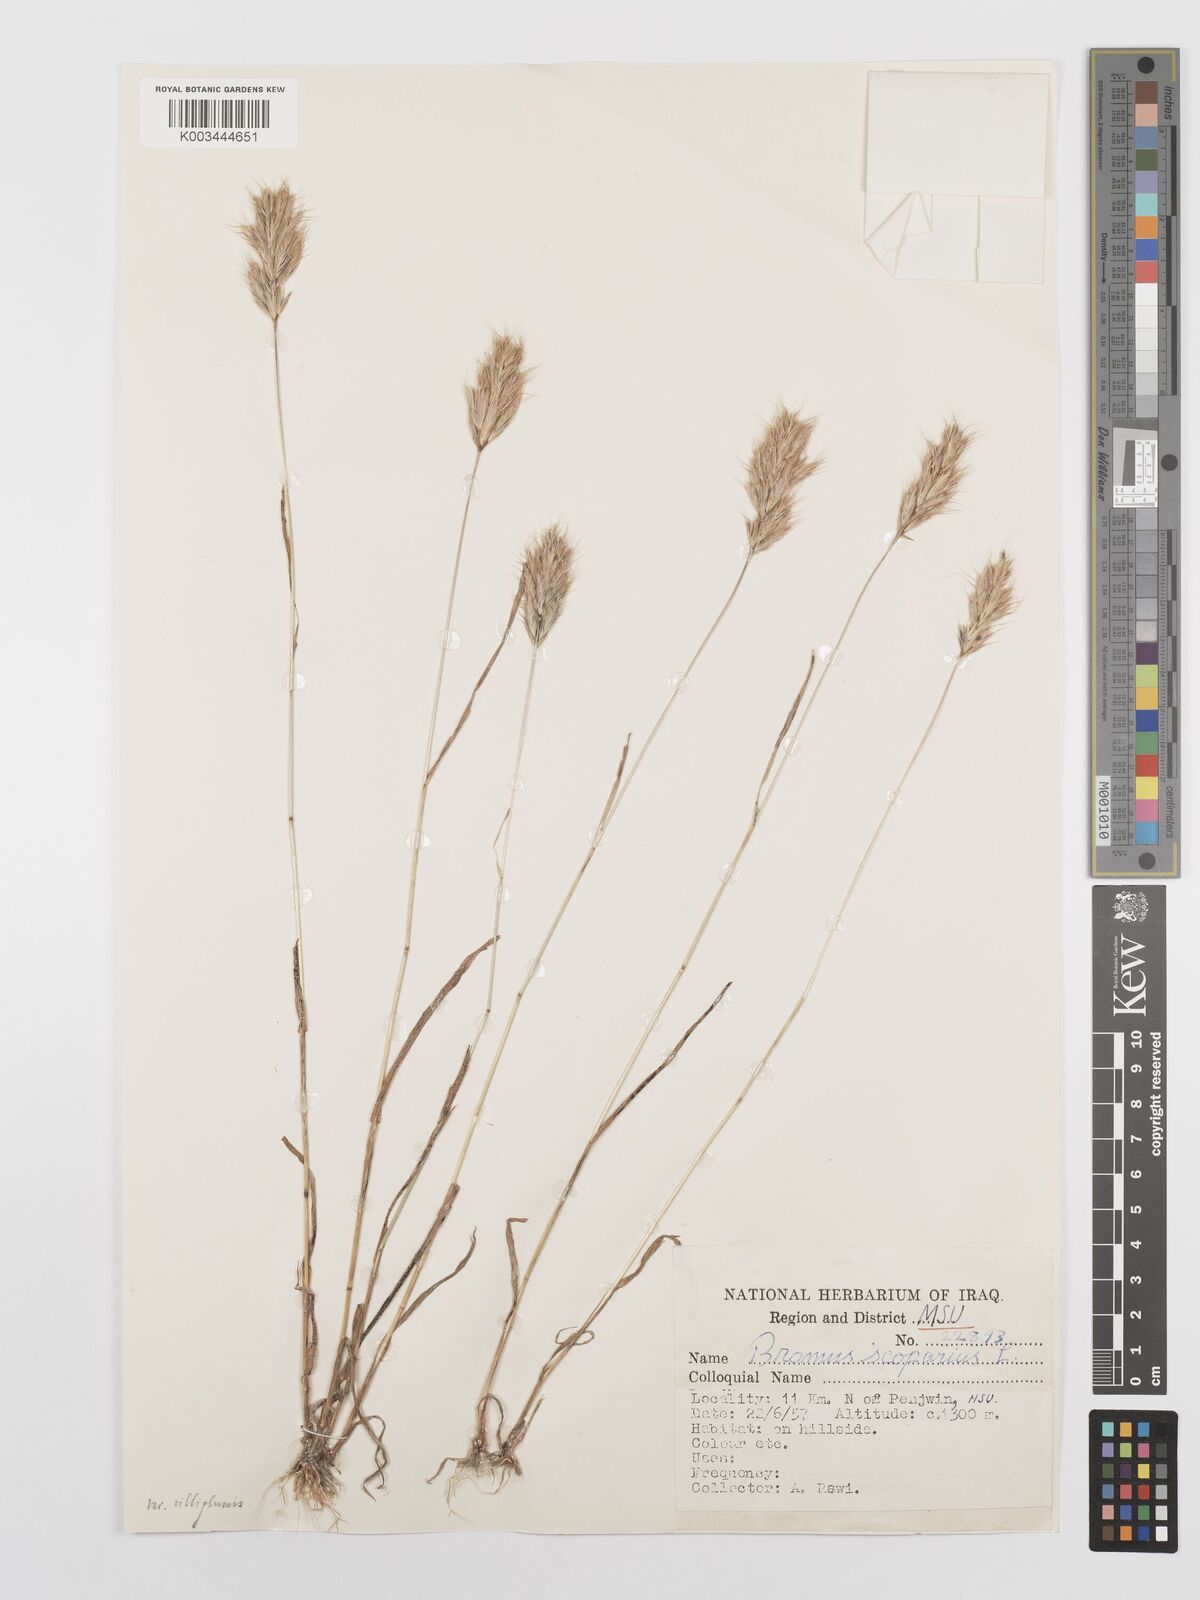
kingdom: Plantae
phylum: Tracheophyta
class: Liliopsida
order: Poales
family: Poaceae
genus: Bromus
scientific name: Bromus scoparius
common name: Broom brome
